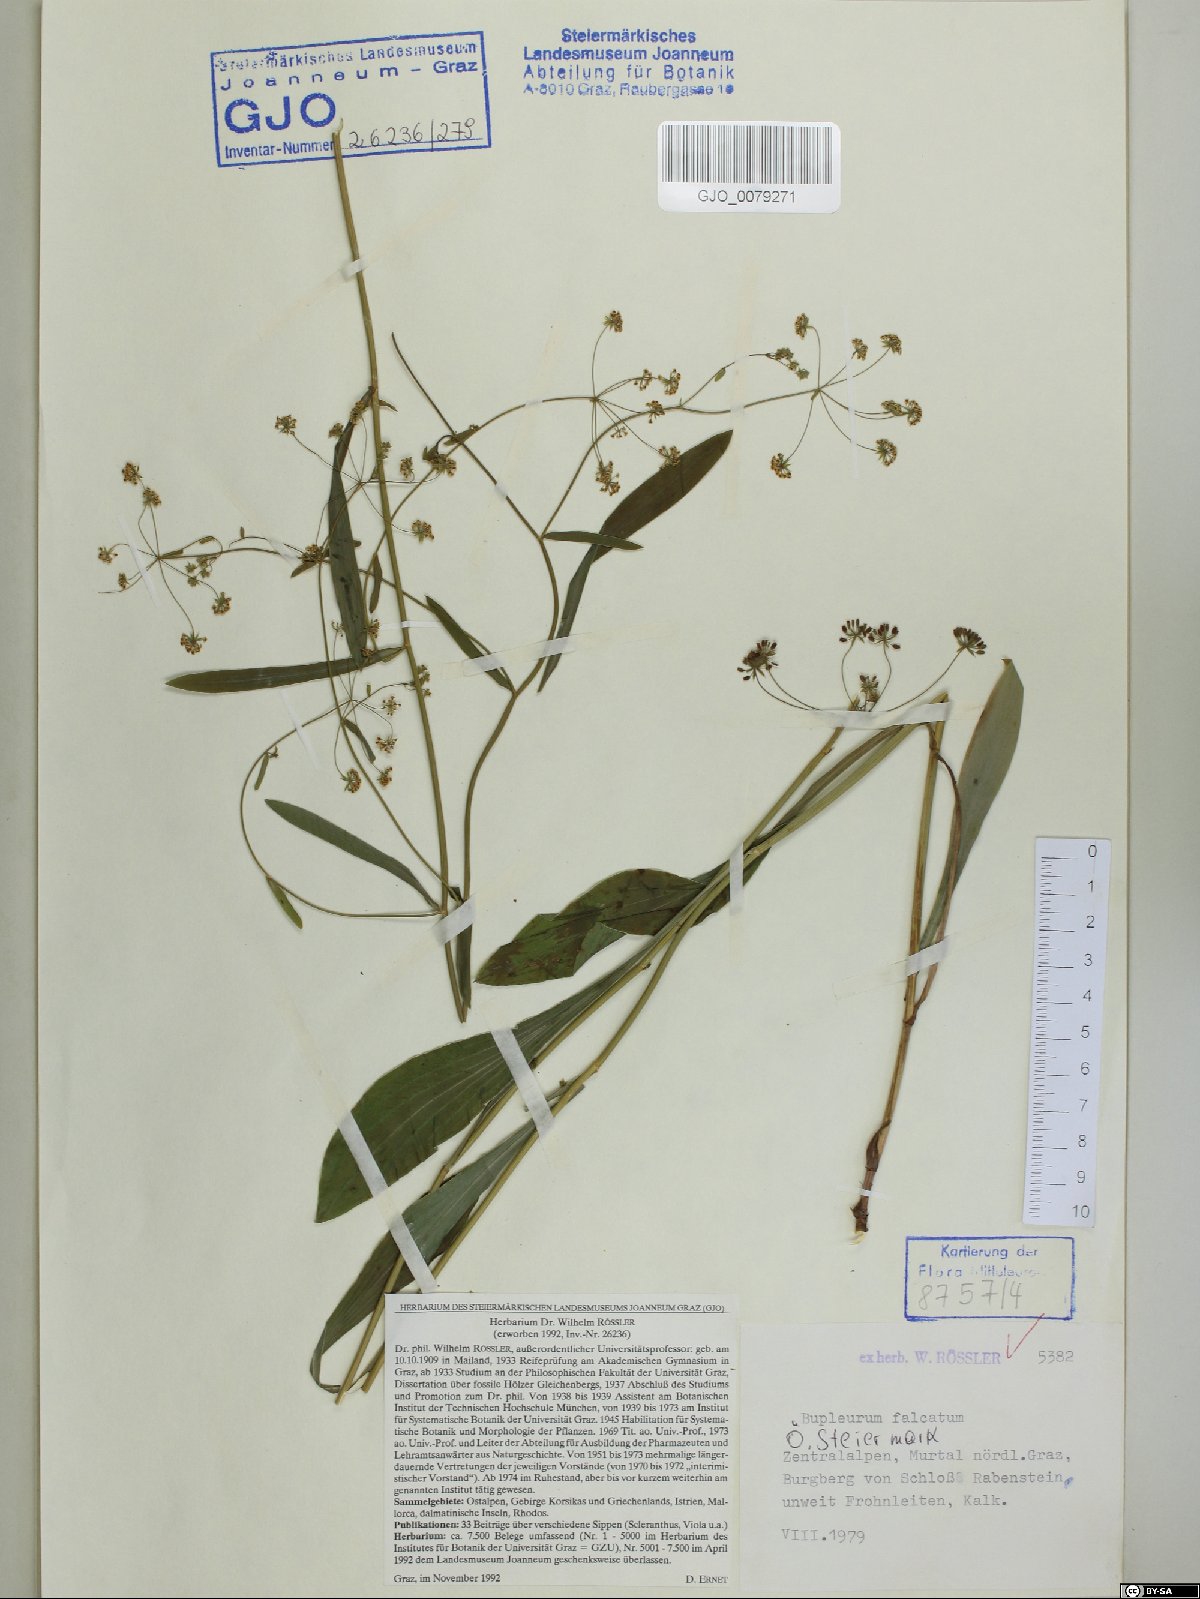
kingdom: Plantae
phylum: Tracheophyta
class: Magnoliopsida
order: Apiales
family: Apiaceae
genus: Bupleurum
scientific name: Bupleurum falcatum
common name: Sickle-leaved hare's-ear
